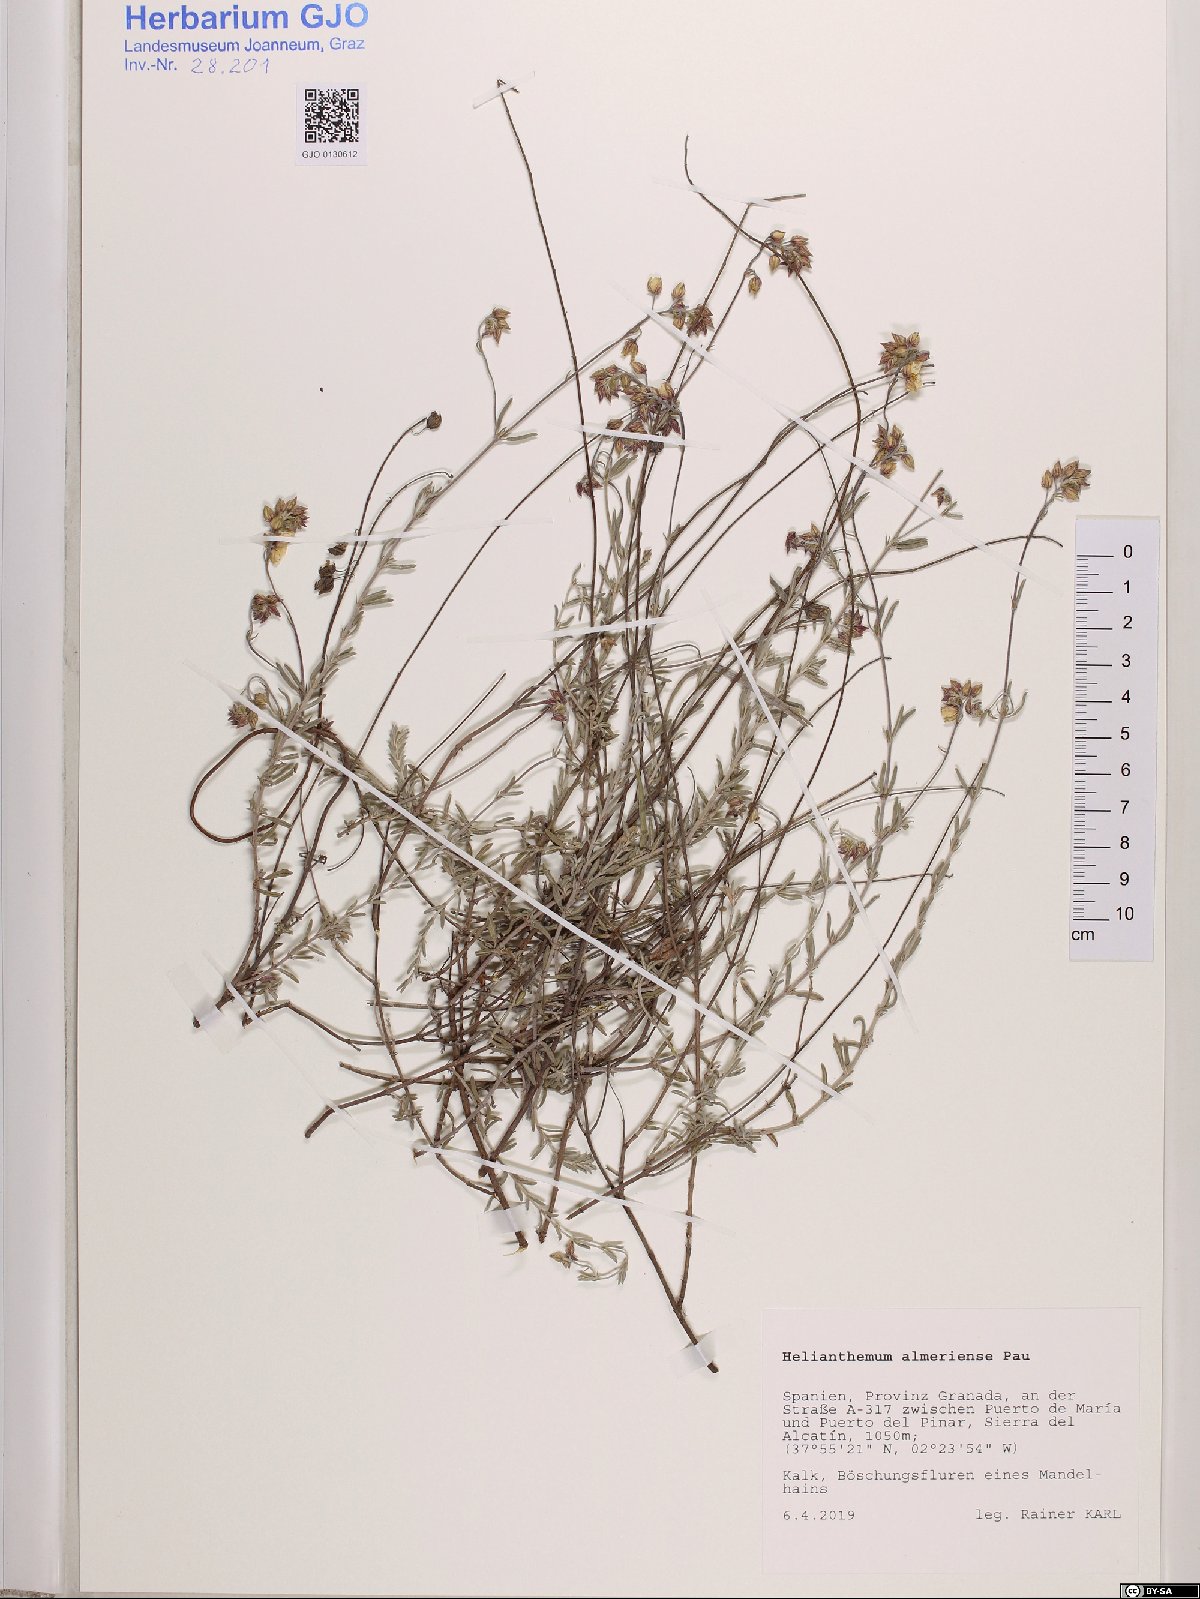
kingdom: Plantae
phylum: Tracheophyta
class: Magnoliopsida
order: Malvales
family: Cistaceae
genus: Helianthemum
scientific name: Helianthemum almeriense
